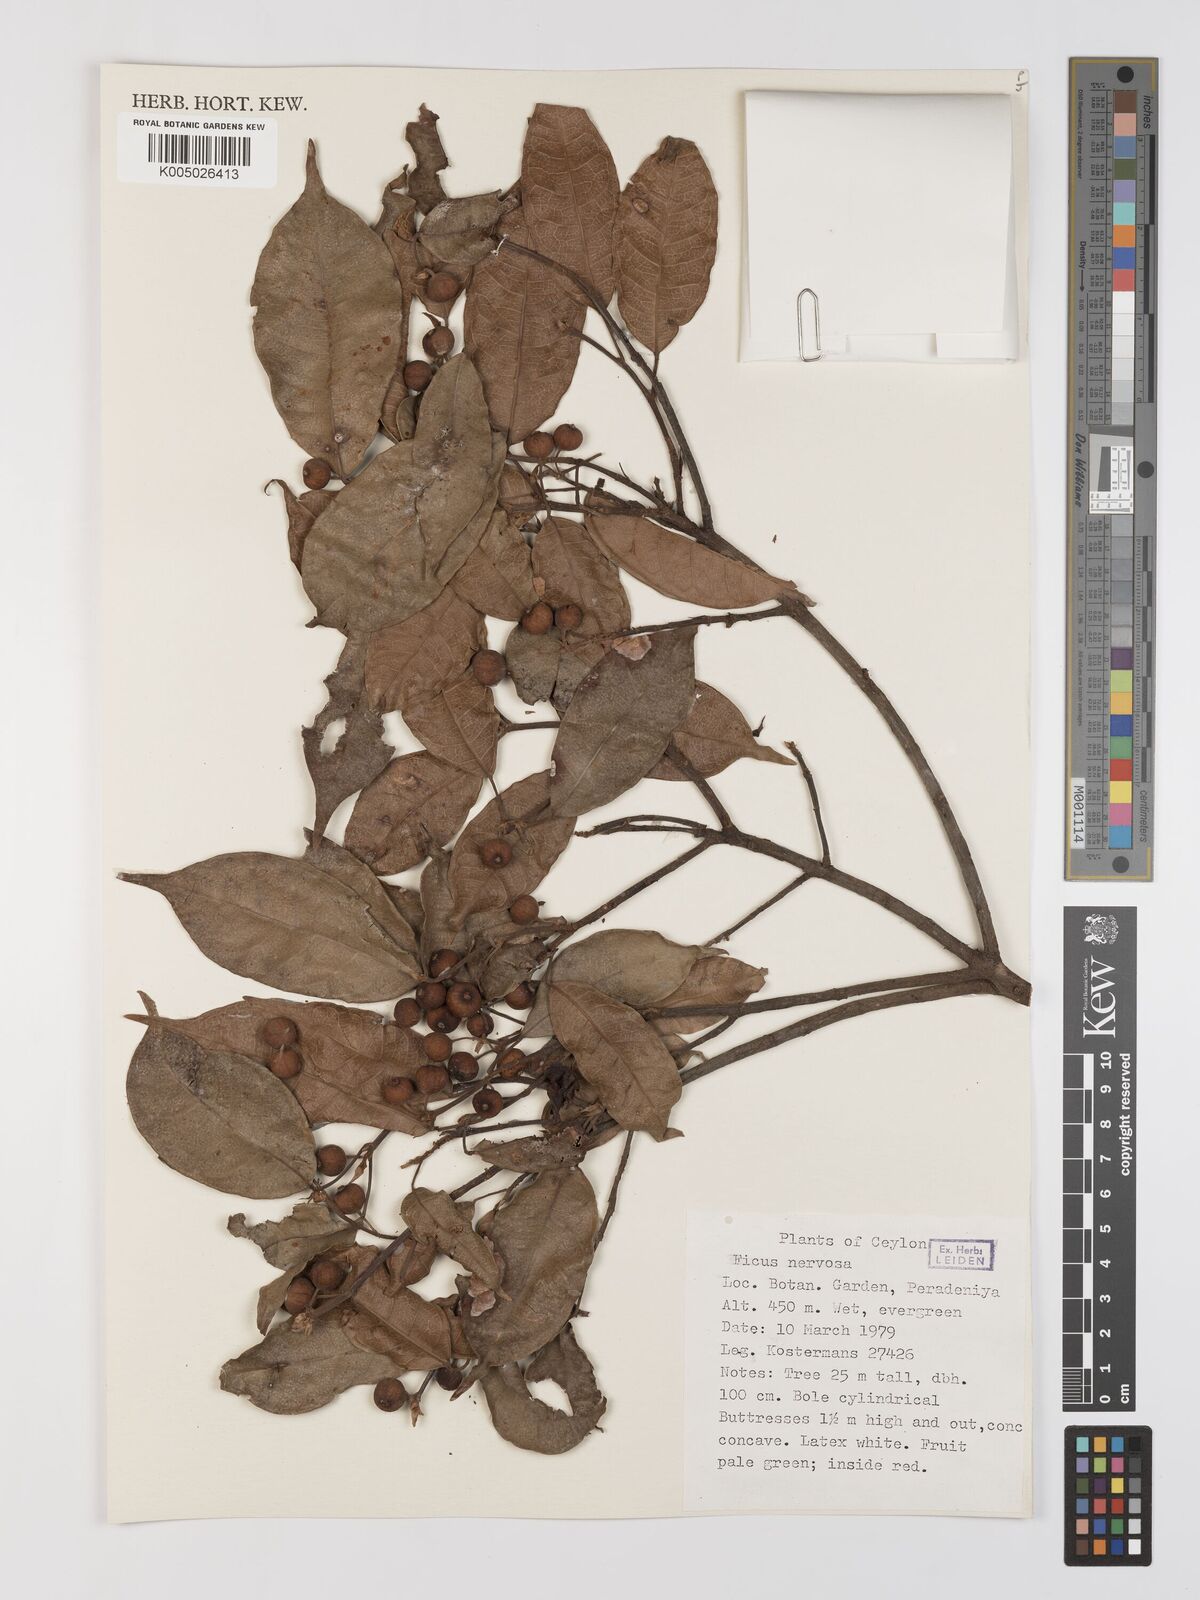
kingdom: Plantae
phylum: Tracheophyta
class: Magnoliopsida
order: Rosales
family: Moraceae
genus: Ficus
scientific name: Ficus nervosa
